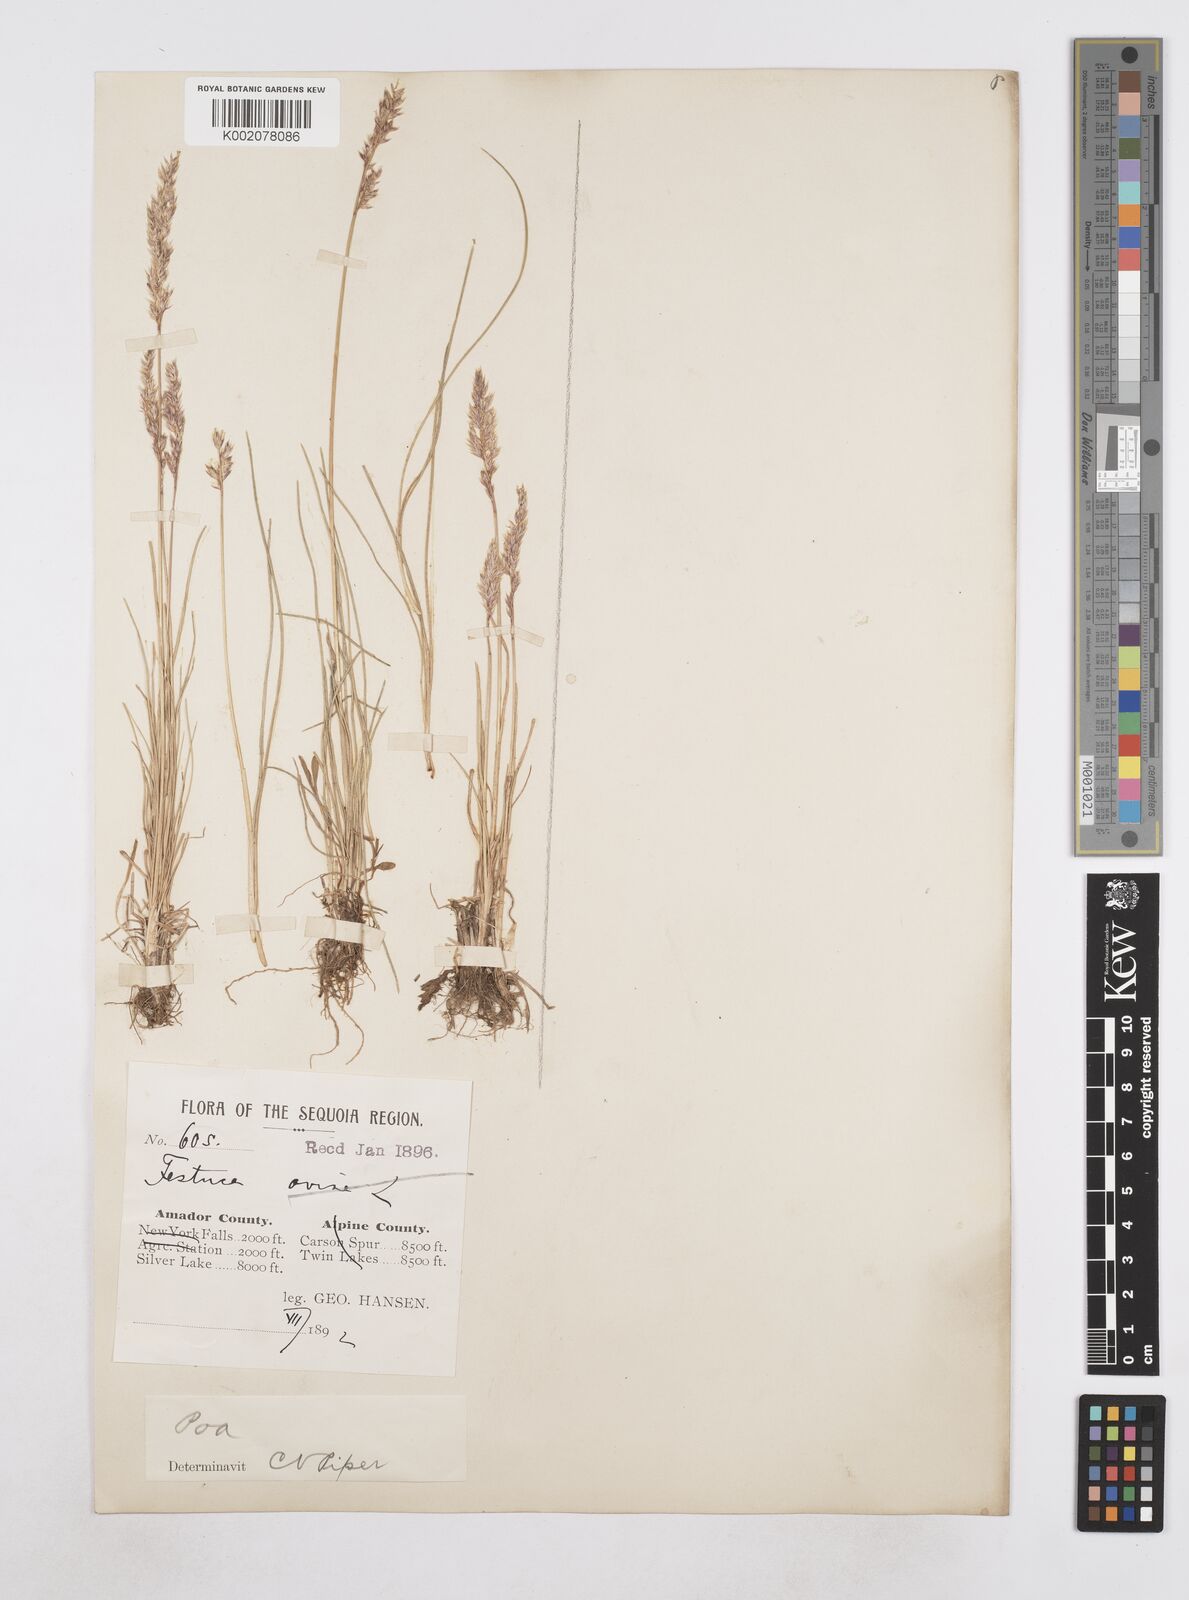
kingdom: Plantae
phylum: Tracheophyta
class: Liliopsida
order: Poales
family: Poaceae
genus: Poa
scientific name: Poa
